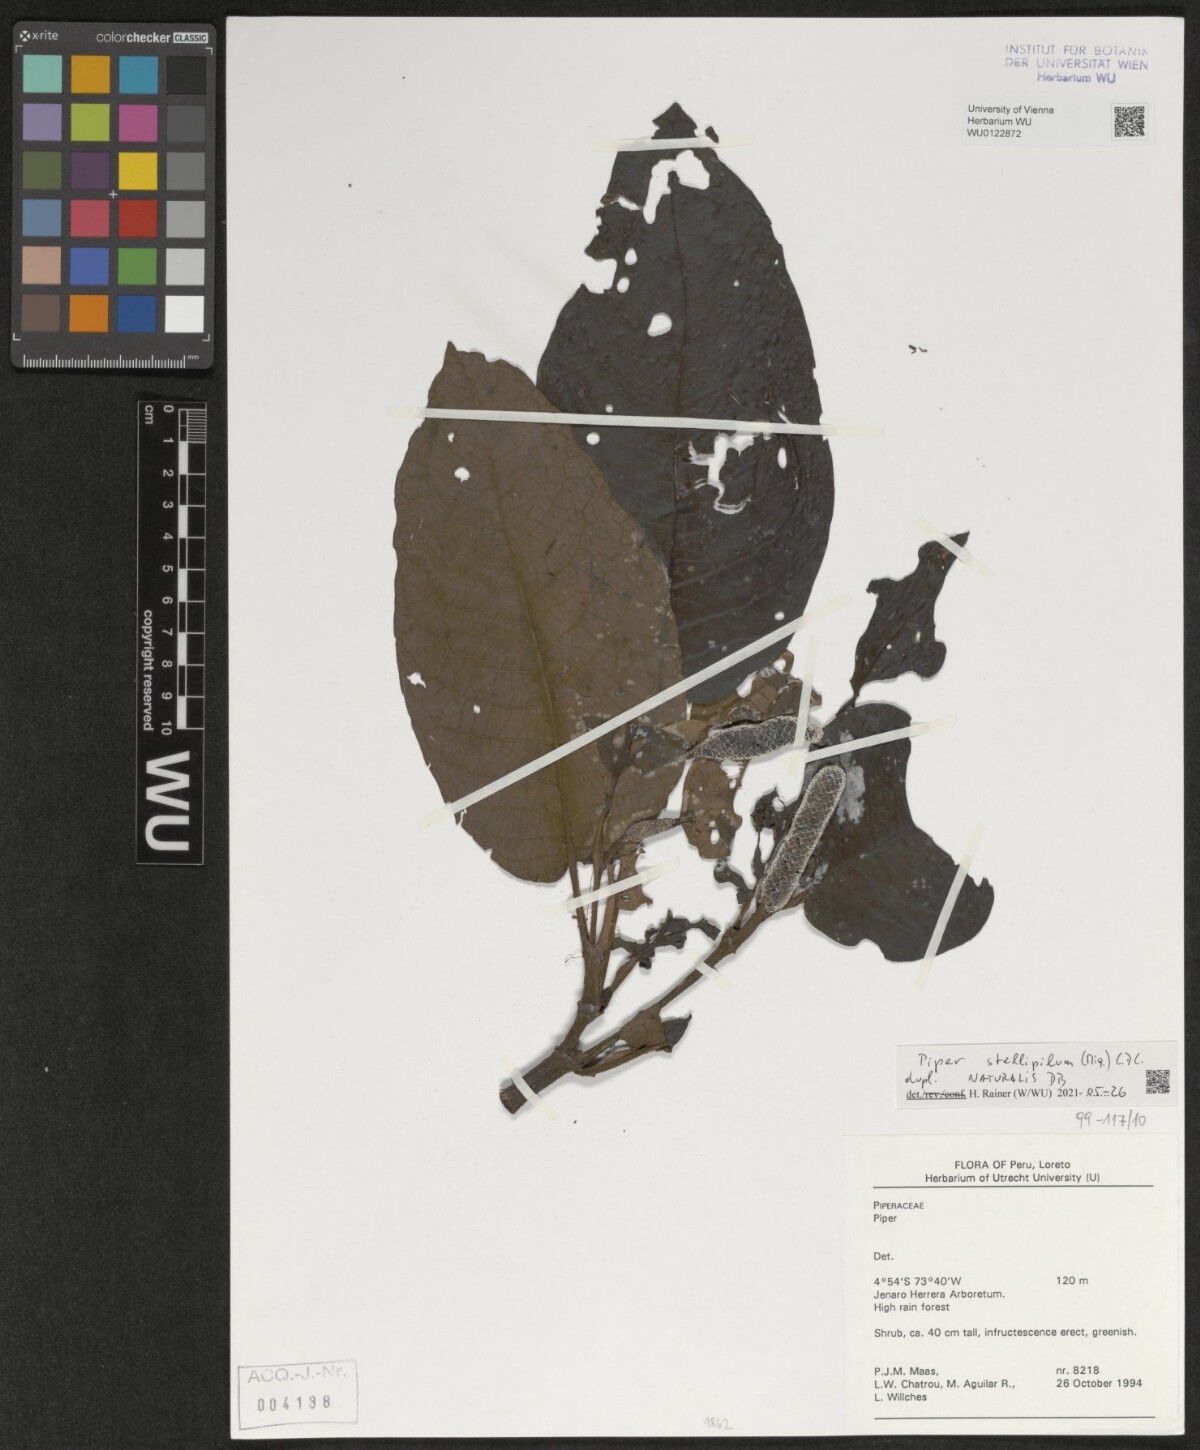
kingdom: Plantae
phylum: Tracheophyta
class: Magnoliopsida
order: Piperales
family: Piperaceae
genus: Piper
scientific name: Piper stellipilum
